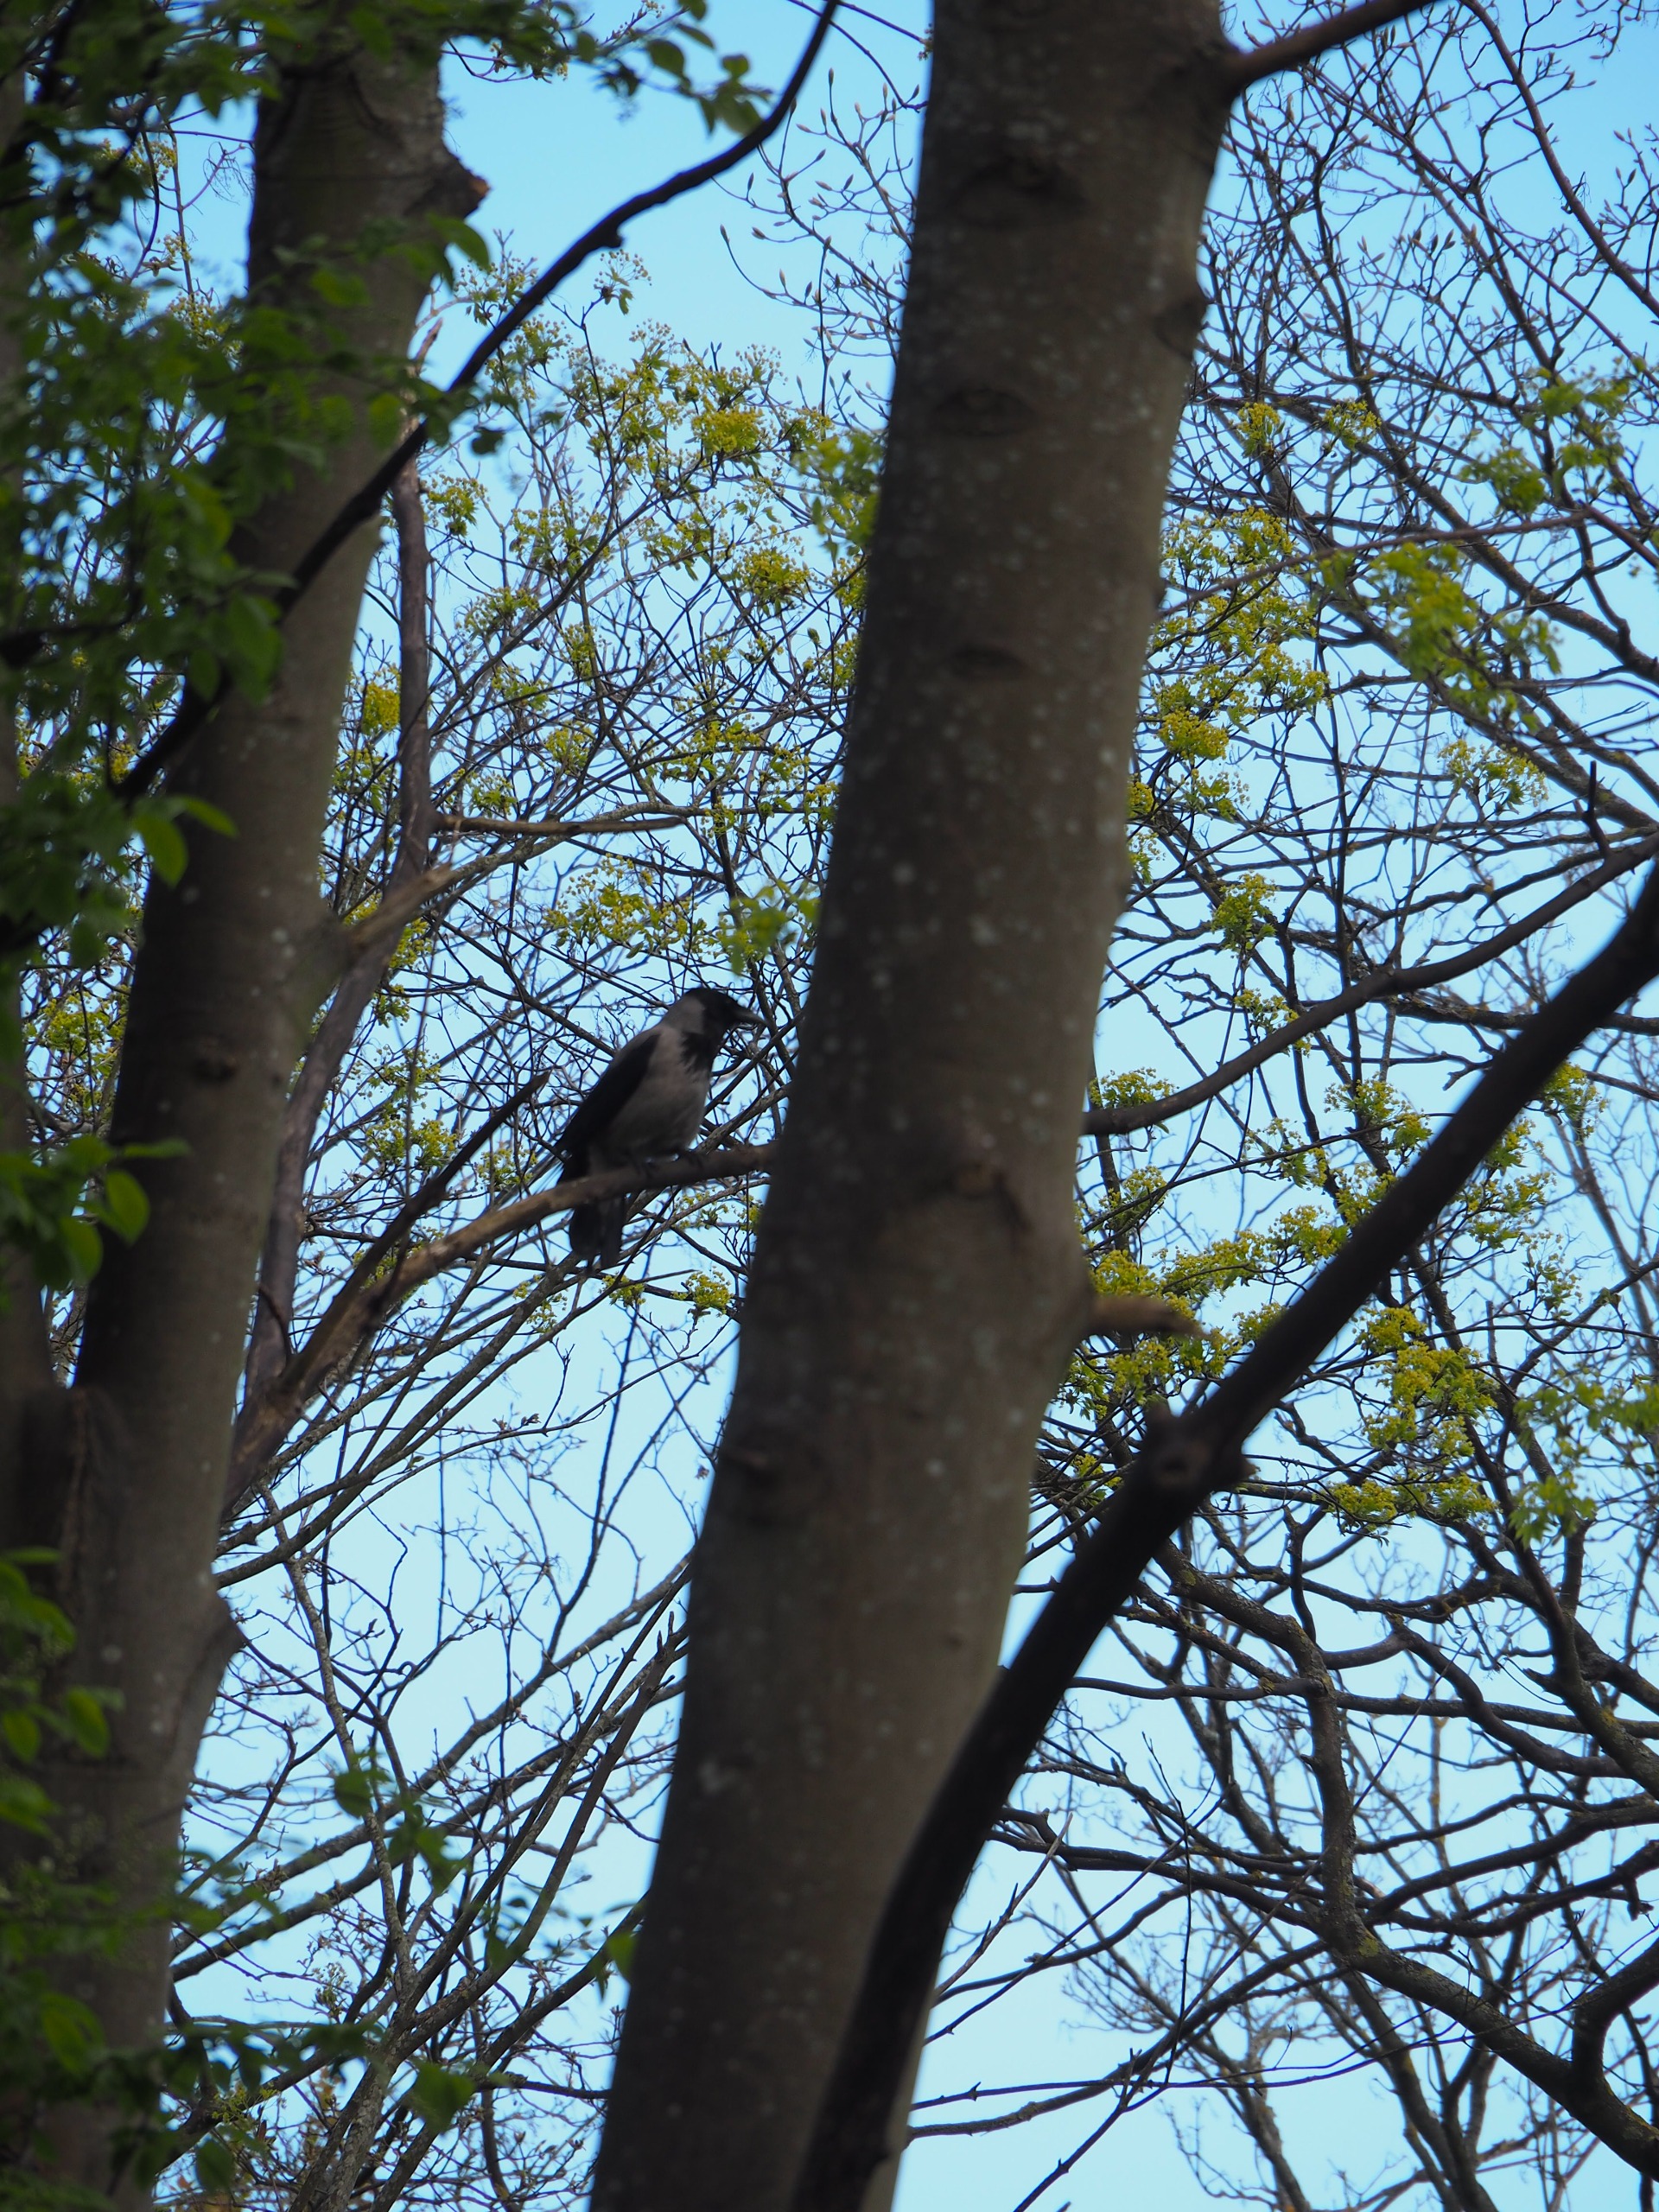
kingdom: Animalia
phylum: Chordata
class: Aves
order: Passeriformes
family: Corvidae
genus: Corvus
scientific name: Corvus cornix
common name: Gråkrage
